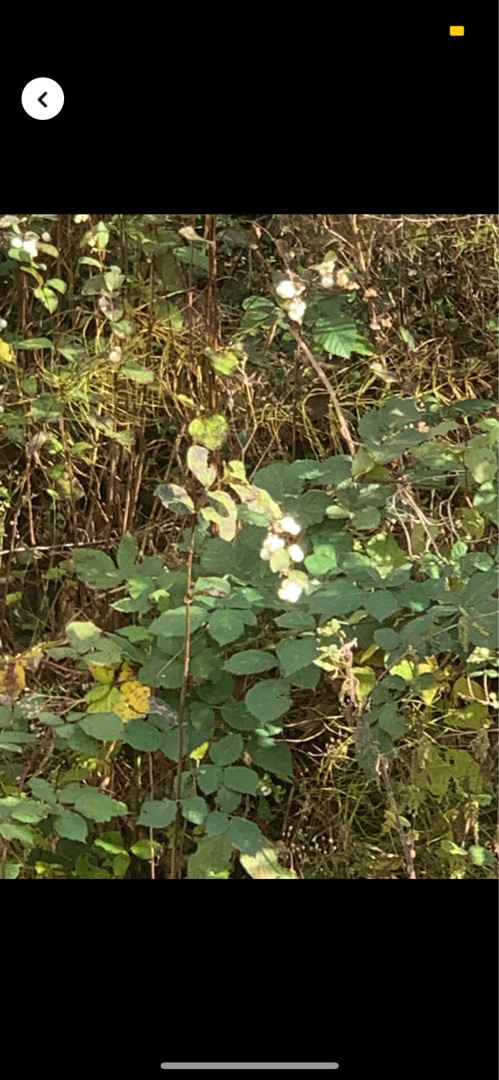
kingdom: Plantae
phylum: Tracheophyta
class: Magnoliopsida
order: Dipsacales
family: Caprifoliaceae
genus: Symphoricarpos
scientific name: Symphoricarpos albus
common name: Almindelig snebær
